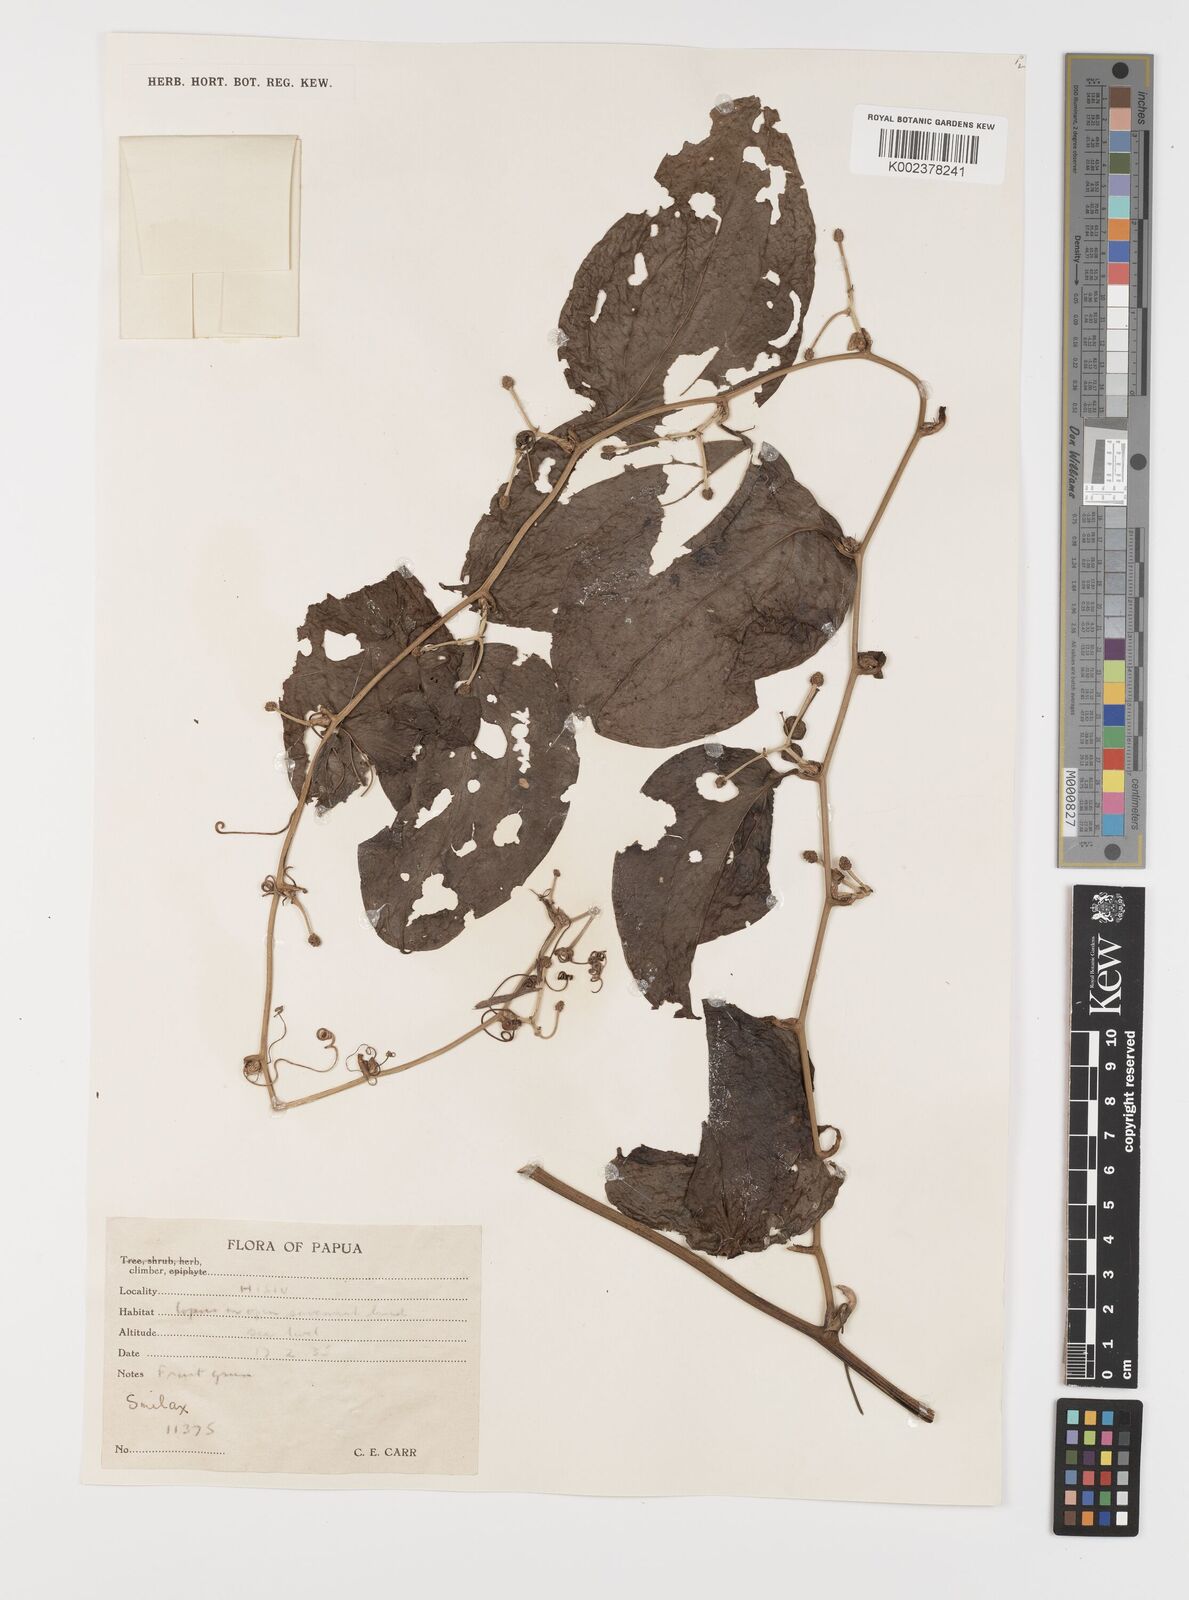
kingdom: Plantae
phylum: Tracheophyta
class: Liliopsida
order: Liliales
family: Smilacaceae
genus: Smilax
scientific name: Smilax
